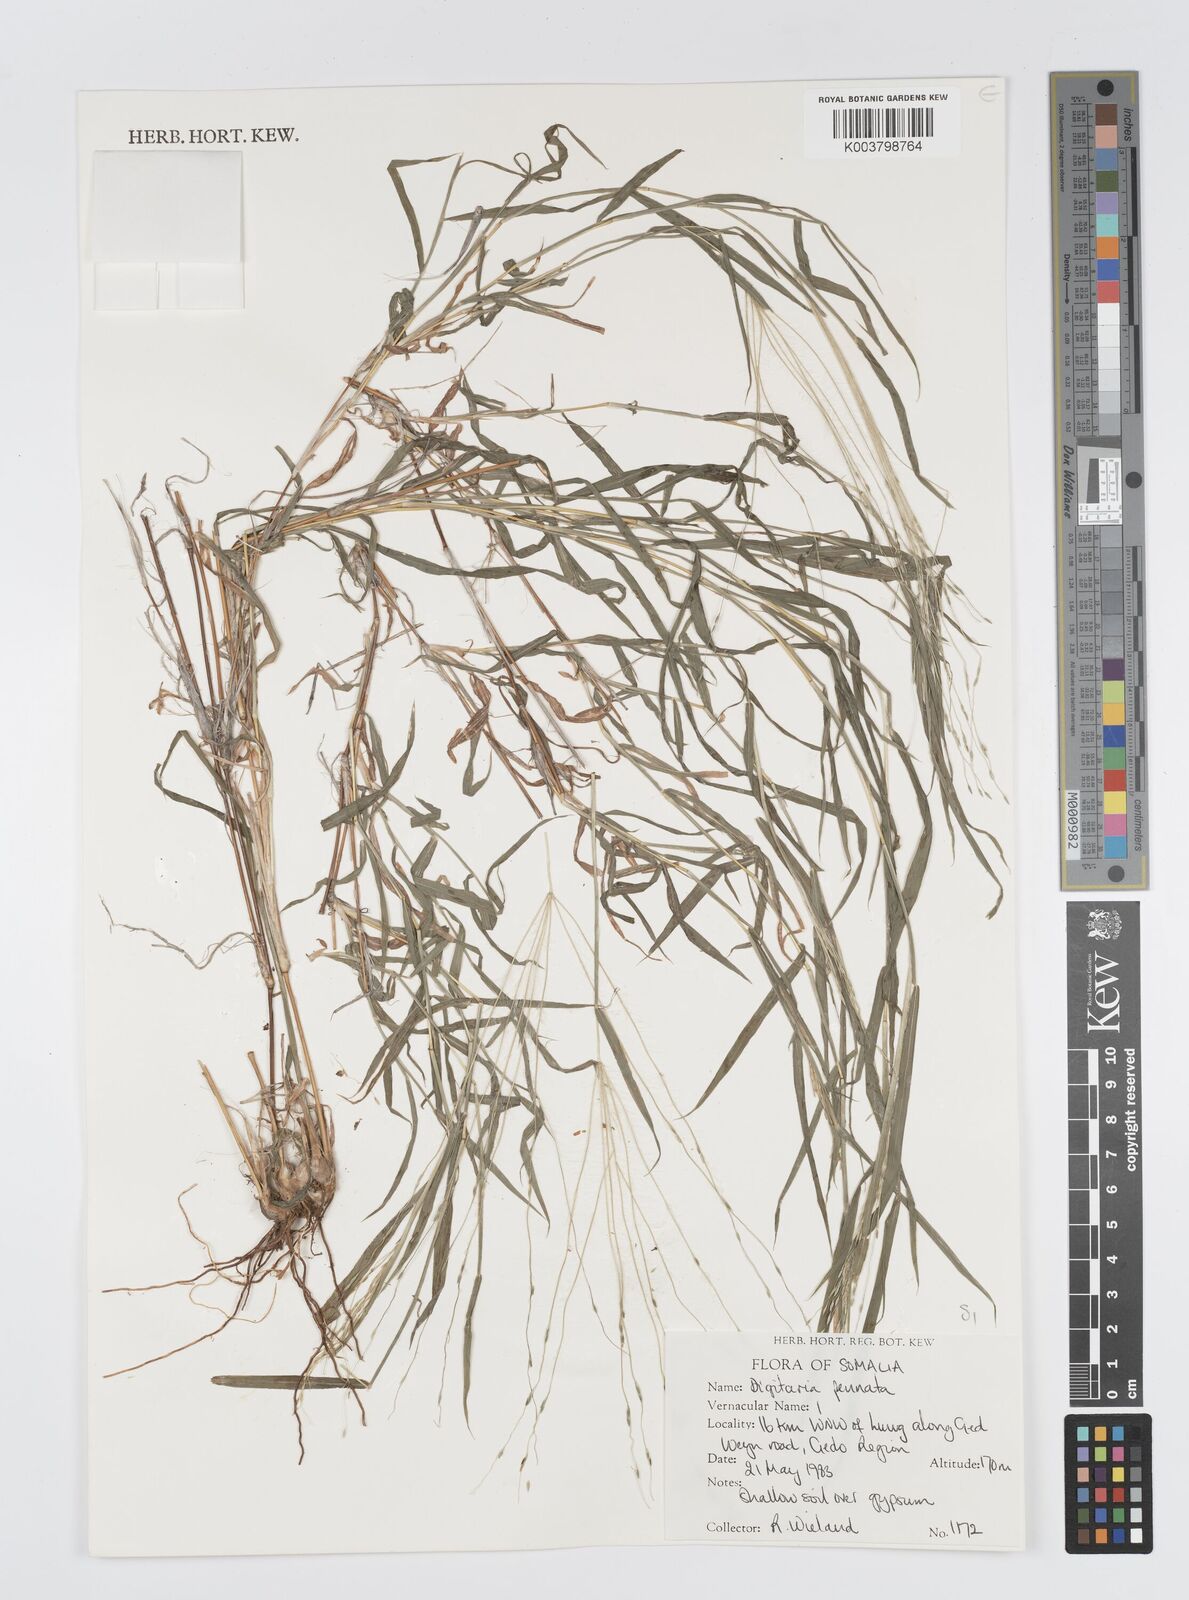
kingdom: Plantae
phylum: Tracheophyta
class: Liliopsida
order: Poales
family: Poaceae
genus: Digitaria
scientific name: Digitaria pennata
